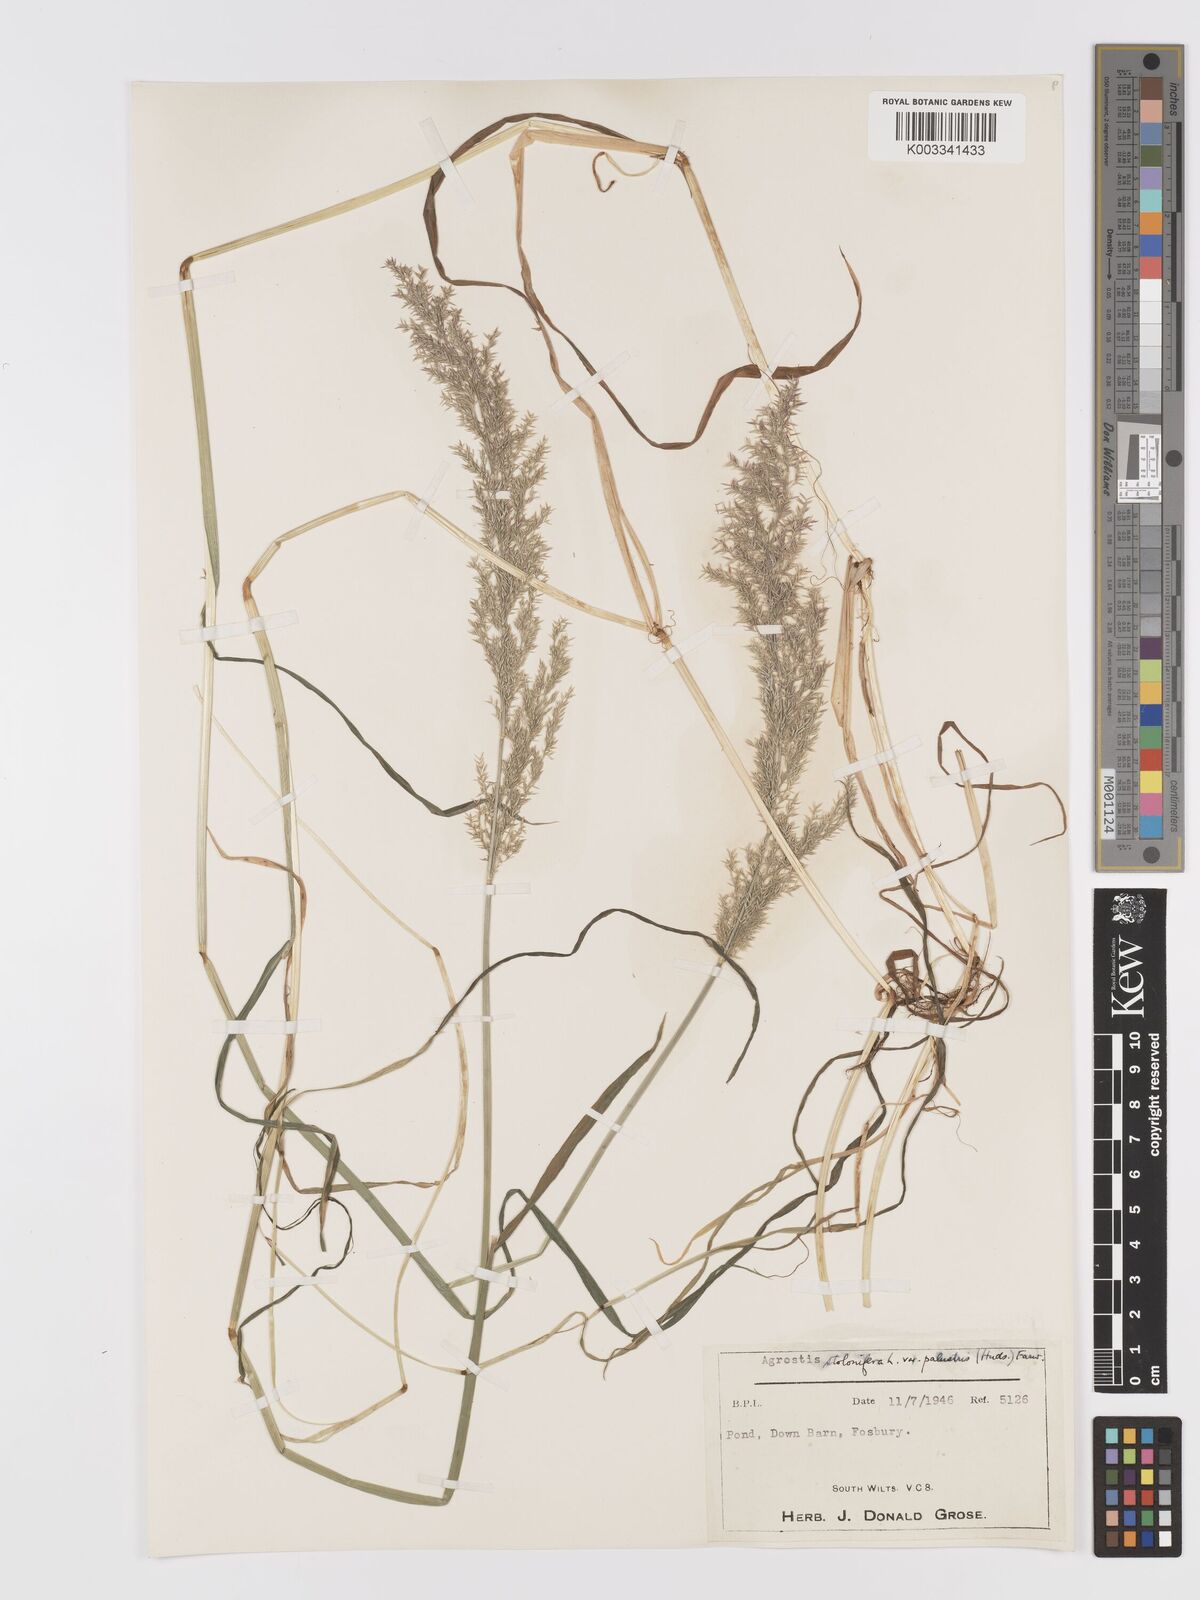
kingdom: Plantae
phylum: Tracheophyta
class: Liliopsida
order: Poales
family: Poaceae
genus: Agrostis
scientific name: Agrostis stolonifera
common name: Creeping bentgrass
